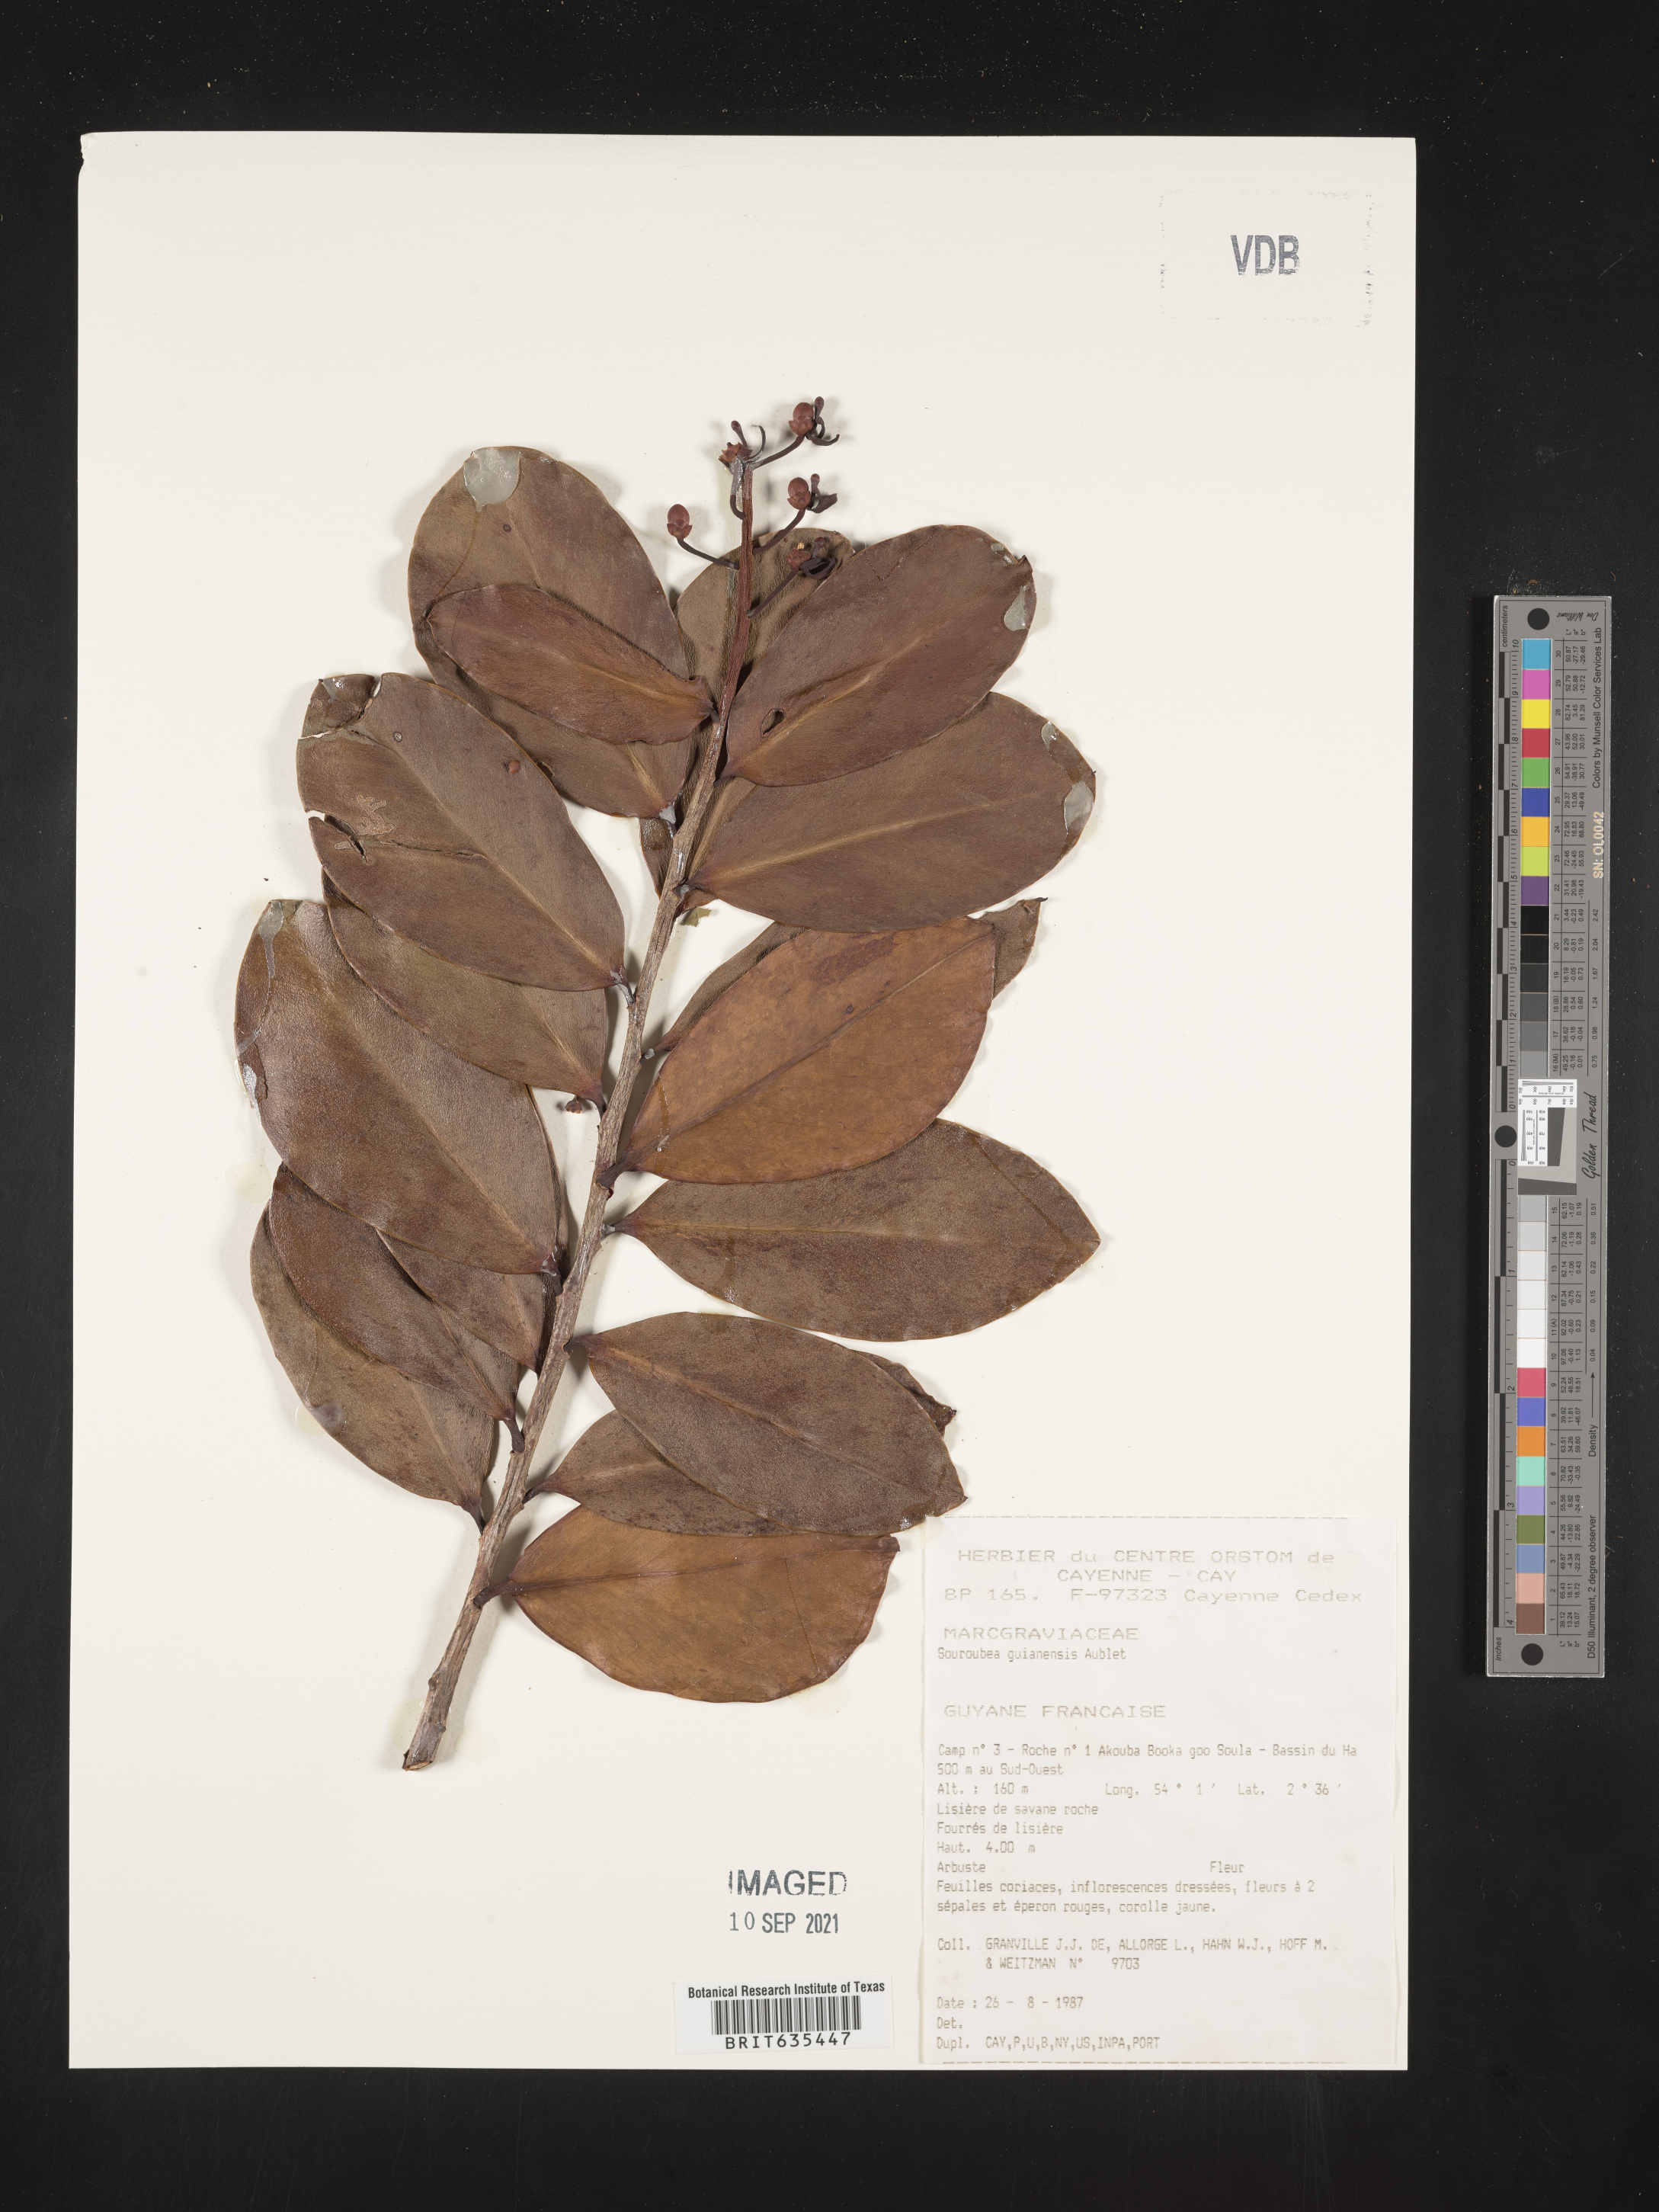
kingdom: Plantae
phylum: Tracheophyta
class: Magnoliopsida
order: Ericales
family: Marcgraviaceae
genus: Souroubea
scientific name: Souroubea
